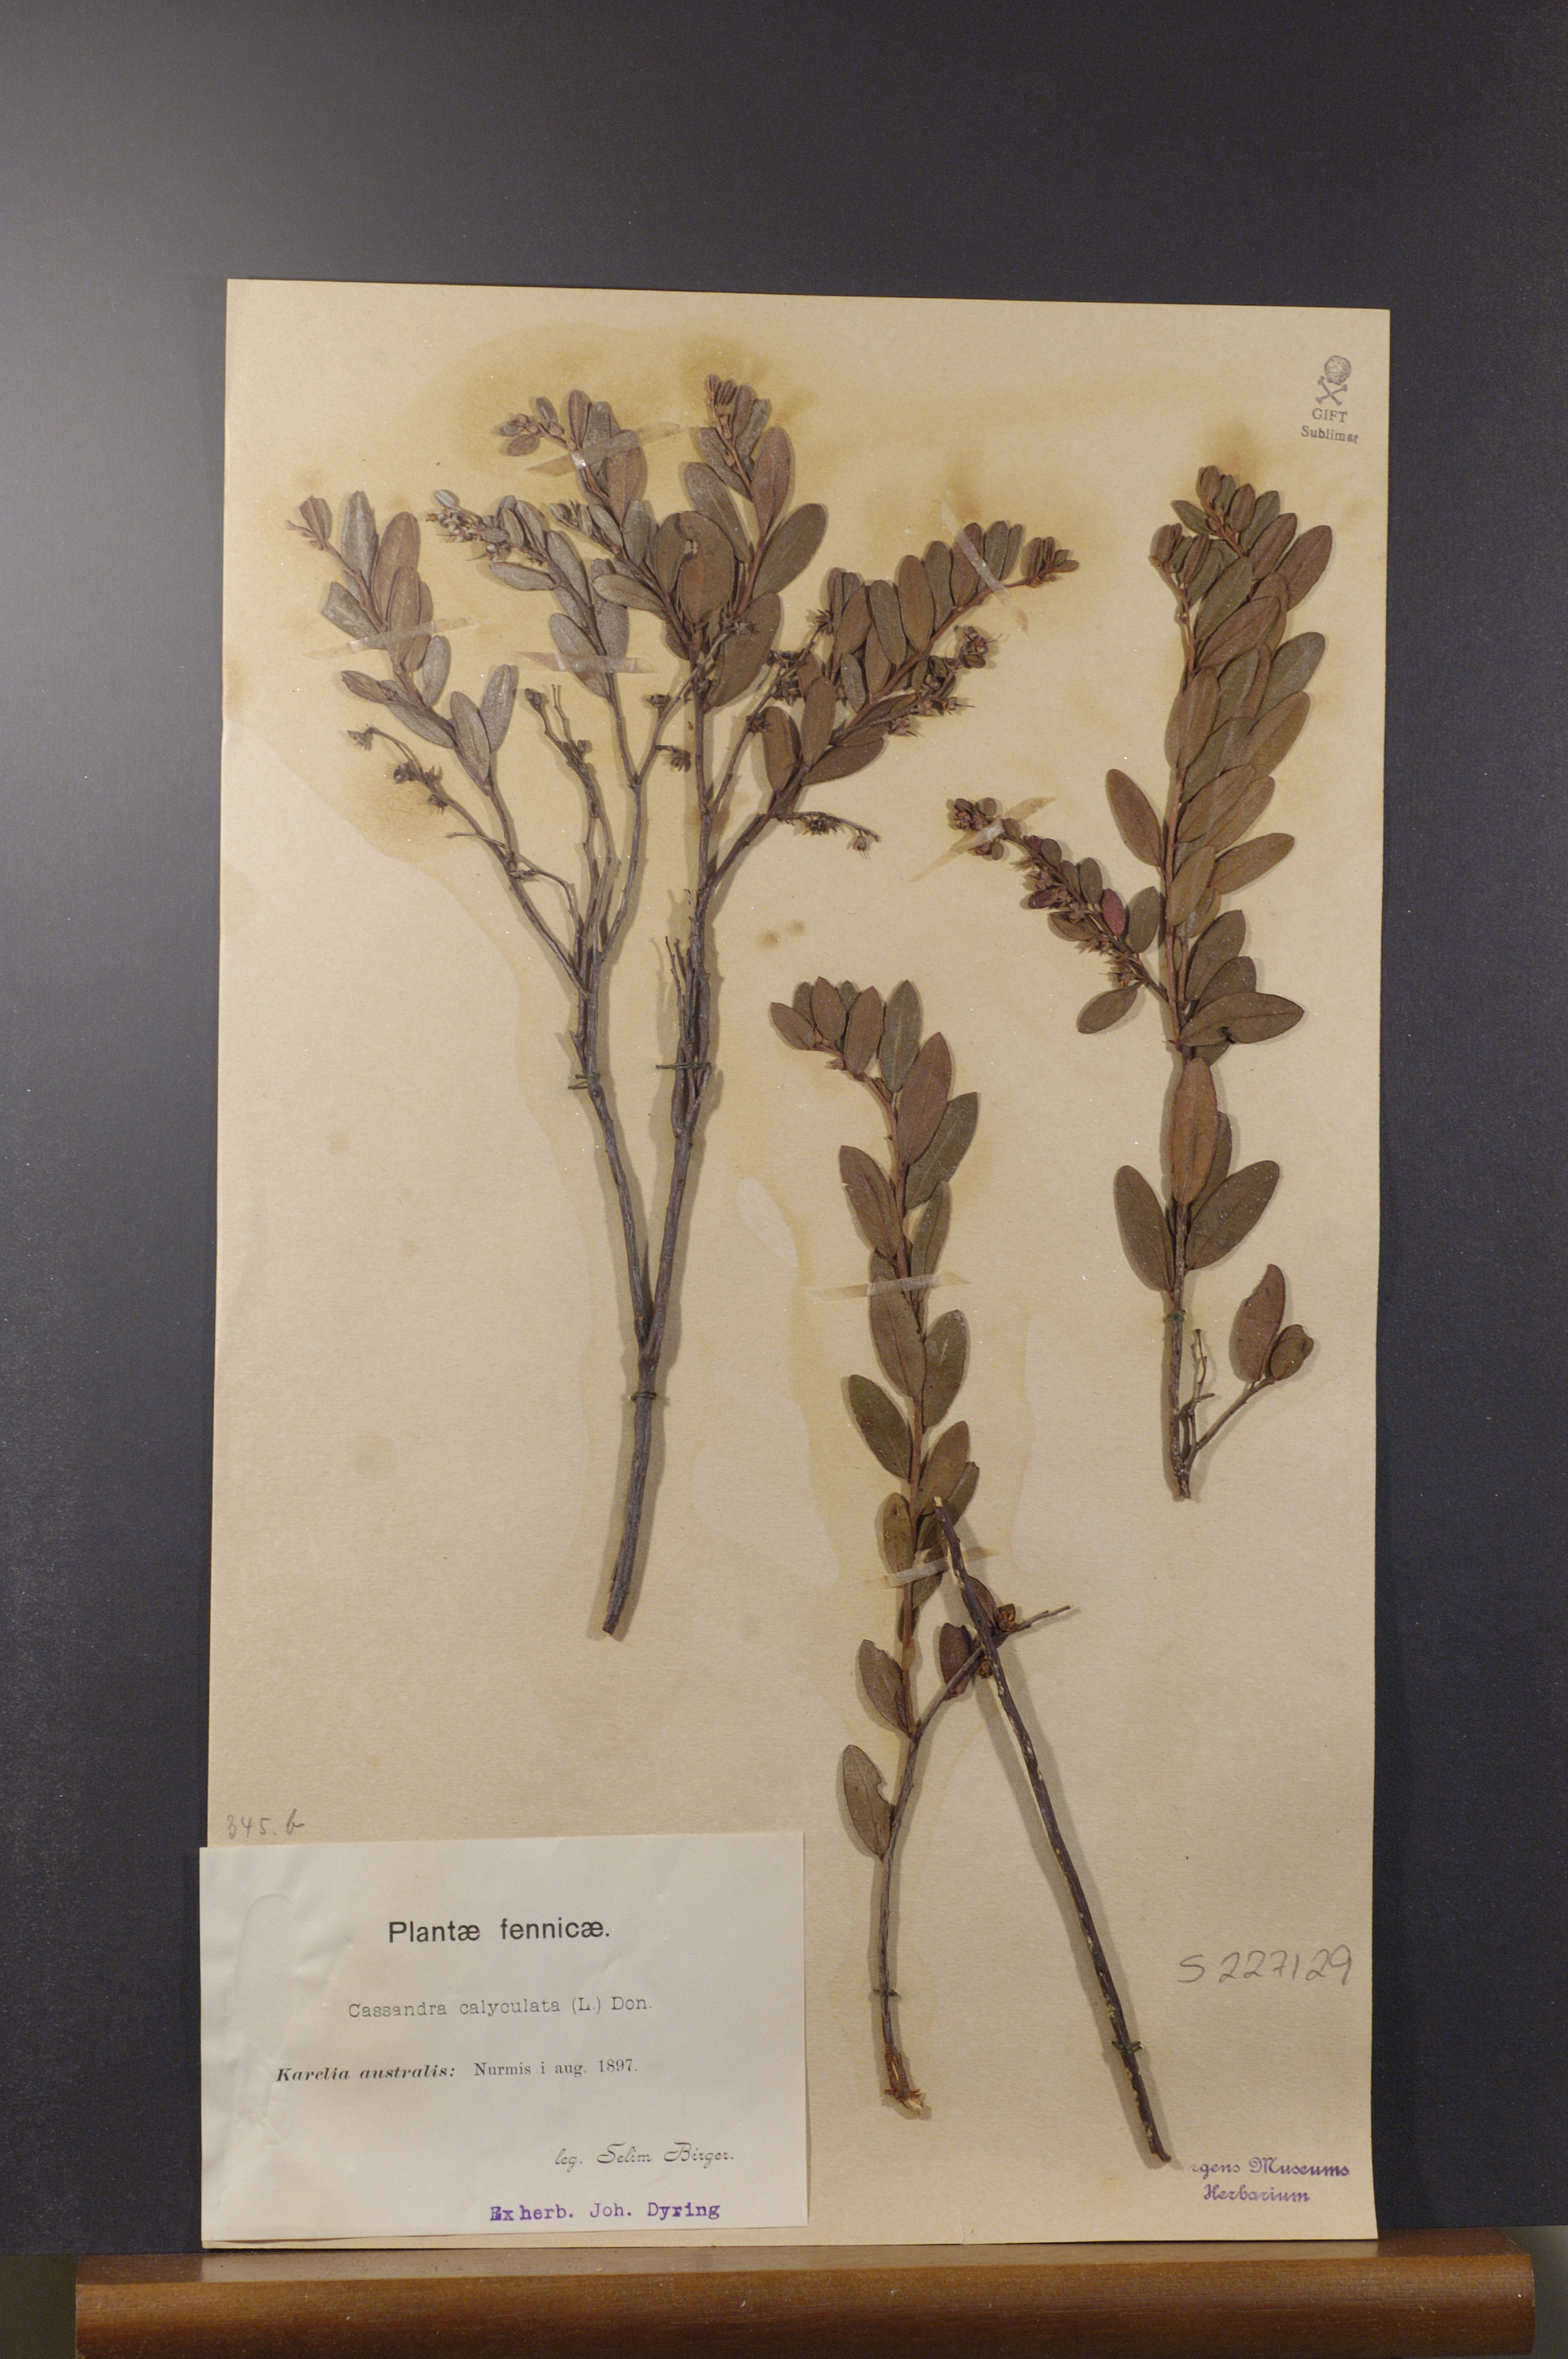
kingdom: Plantae
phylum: Tracheophyta
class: Magnoliopsida
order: Ericales
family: Ericaceae
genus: Chamaedaphne
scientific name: Chamaedaphne calyculata
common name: Leatherleaf
